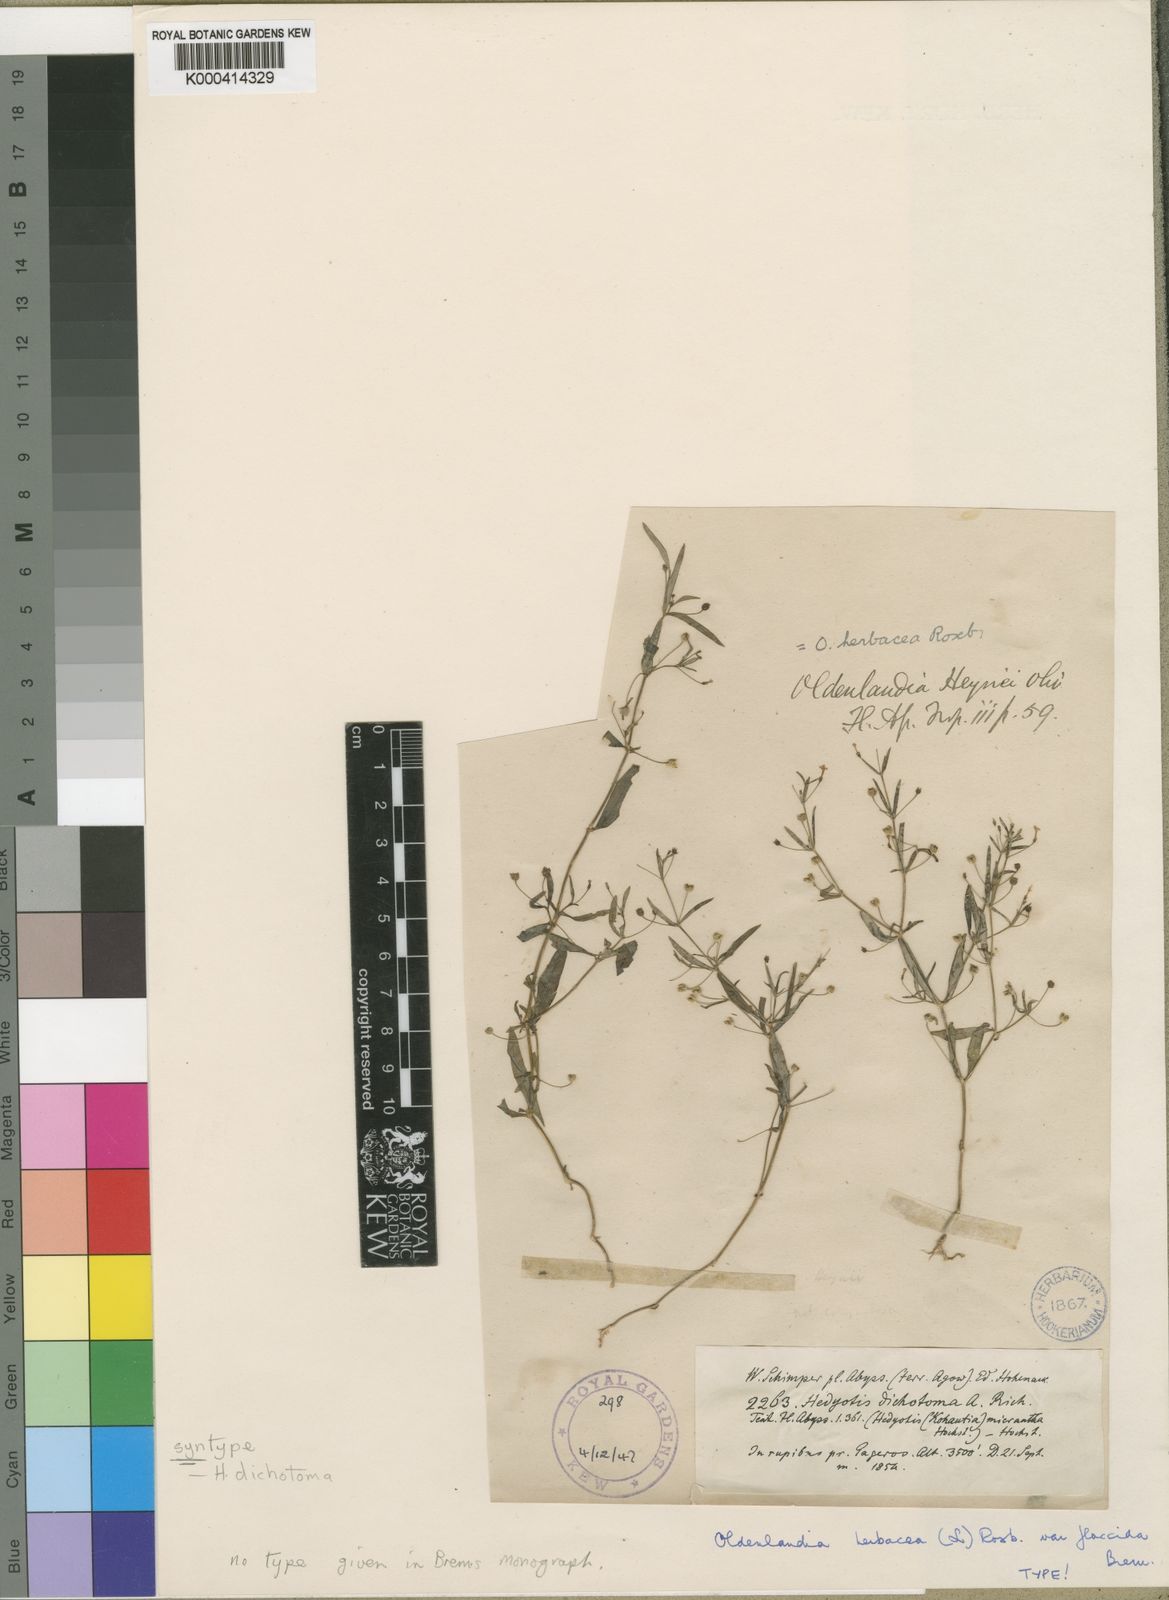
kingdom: Plantae
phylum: Tracheophyta
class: Magnoliopsida
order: Gentianales
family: Rubiaceae
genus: Oldenlandia
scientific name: Oldenlandia herbacea
